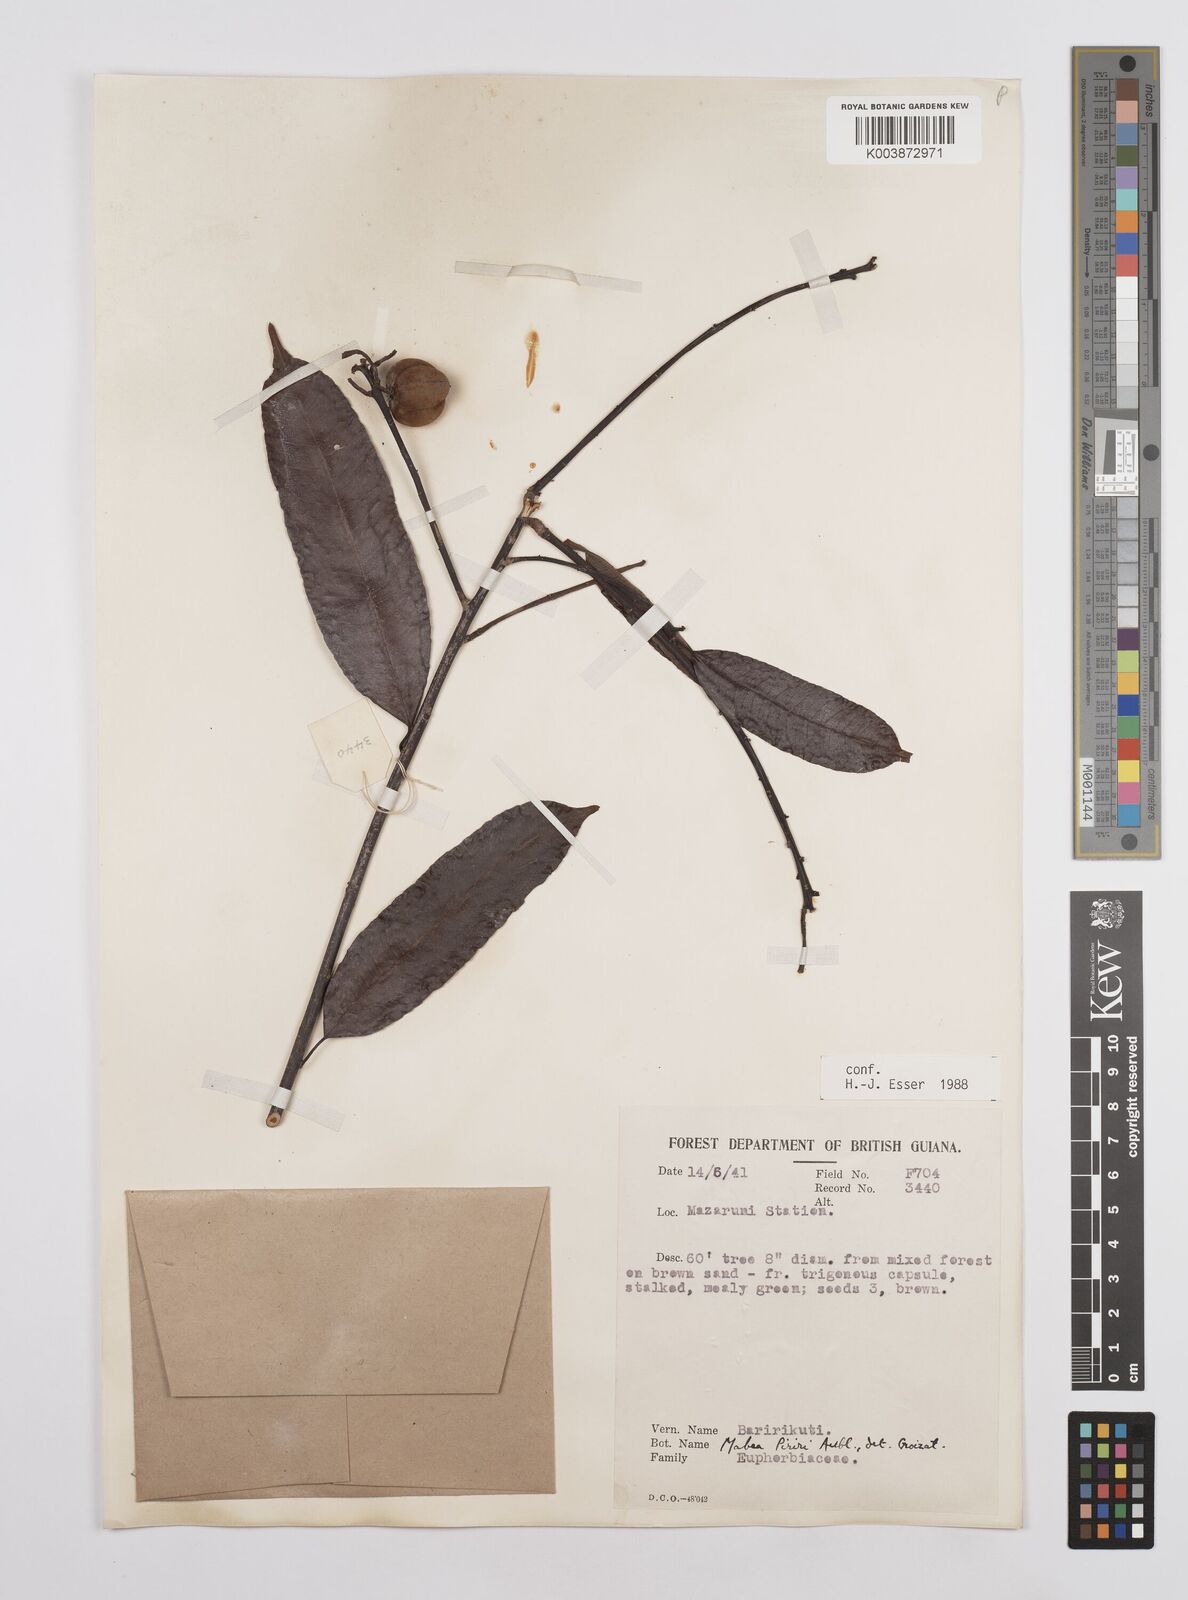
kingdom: Plantae
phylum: Tracheophyta
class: Magnoliopsida
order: Malpighiales
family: Euphorbiaceae
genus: Mabea
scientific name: Mabea piriri
